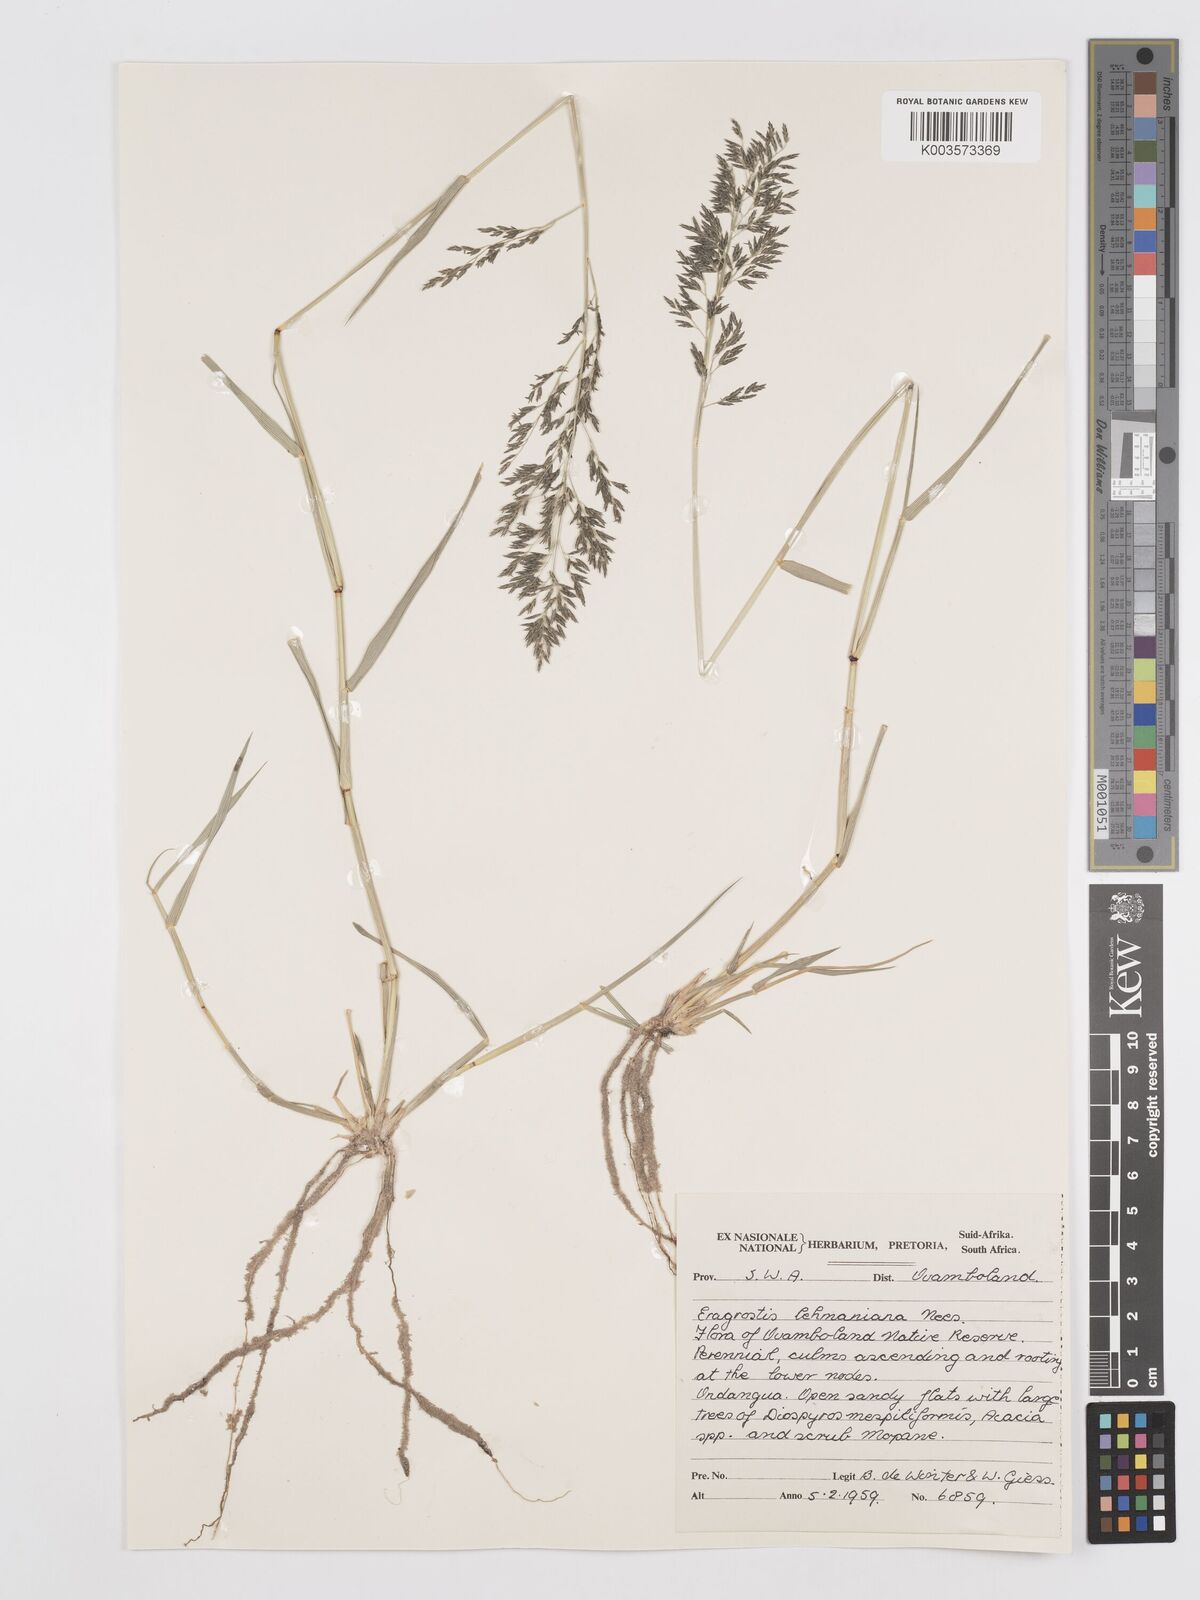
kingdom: Plantae
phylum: Tracheophyta
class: Liliopsida
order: Poales
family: Poaceae
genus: Eragrostis
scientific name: Eragrostis lehmanniana
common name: Lehmann lovegrass
